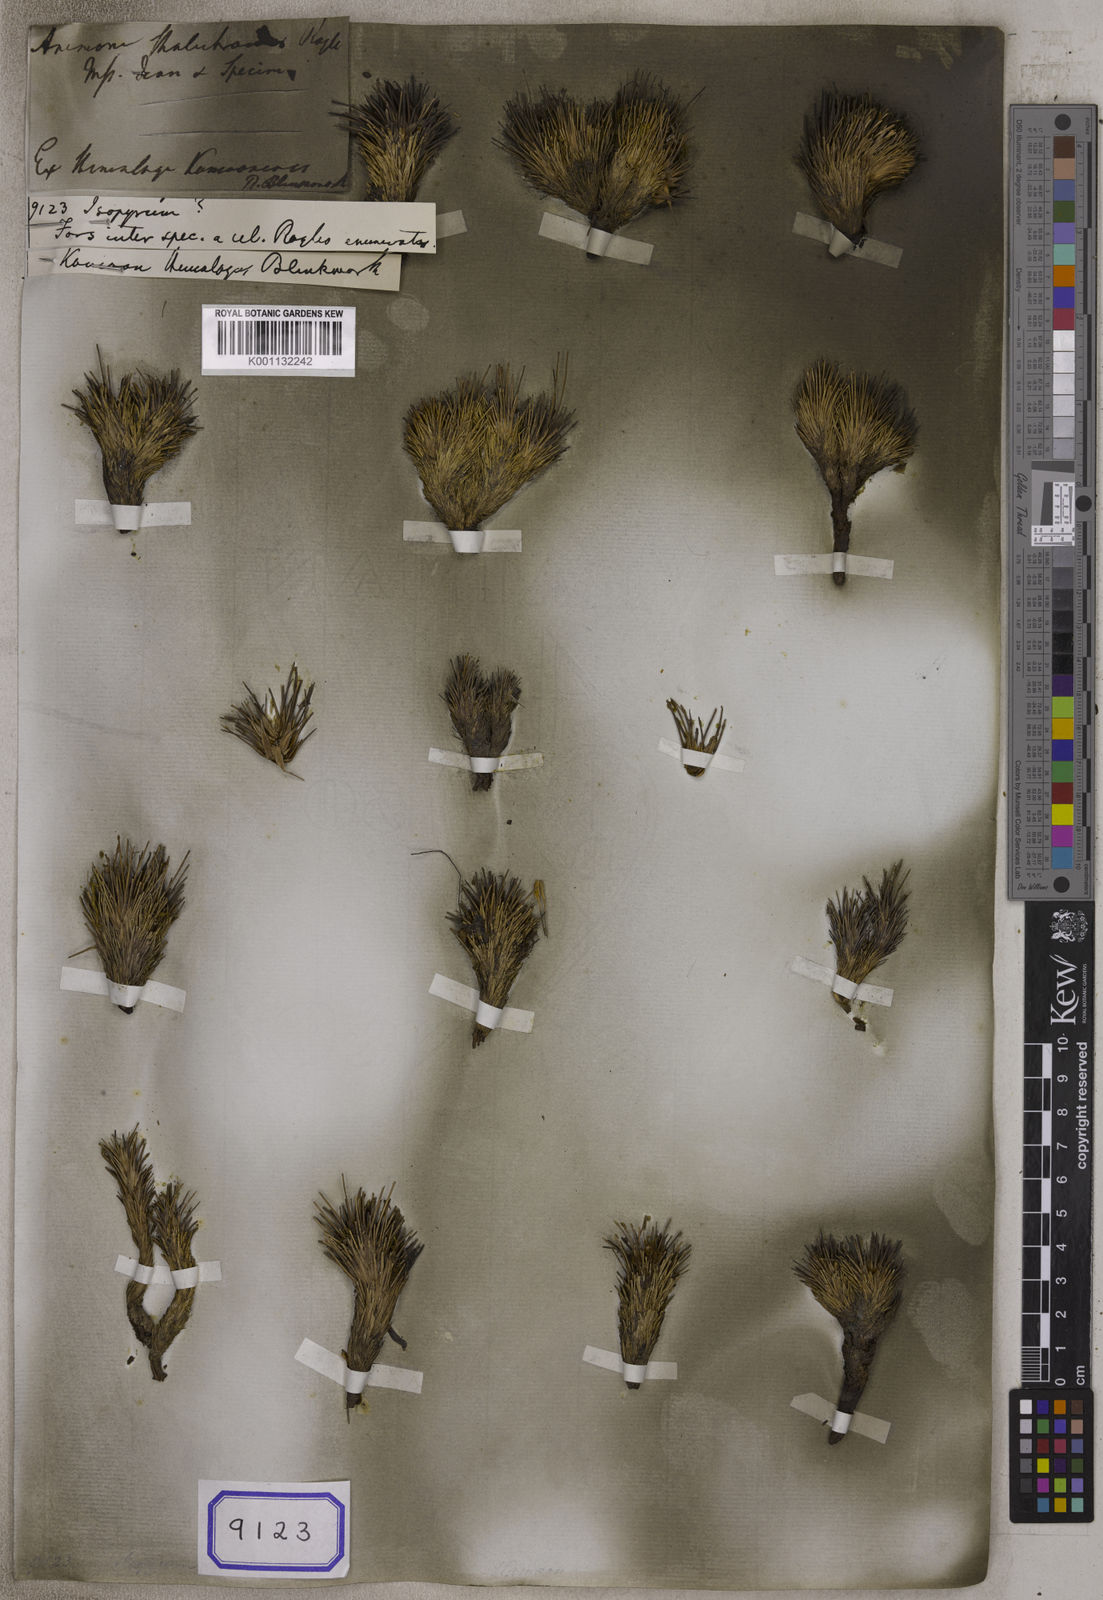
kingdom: Plantae
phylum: Tracheophyta
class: Magnoliopsida
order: Ranunculales
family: Ranunculaceae
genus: Isopyrum
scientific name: Isopyrum
